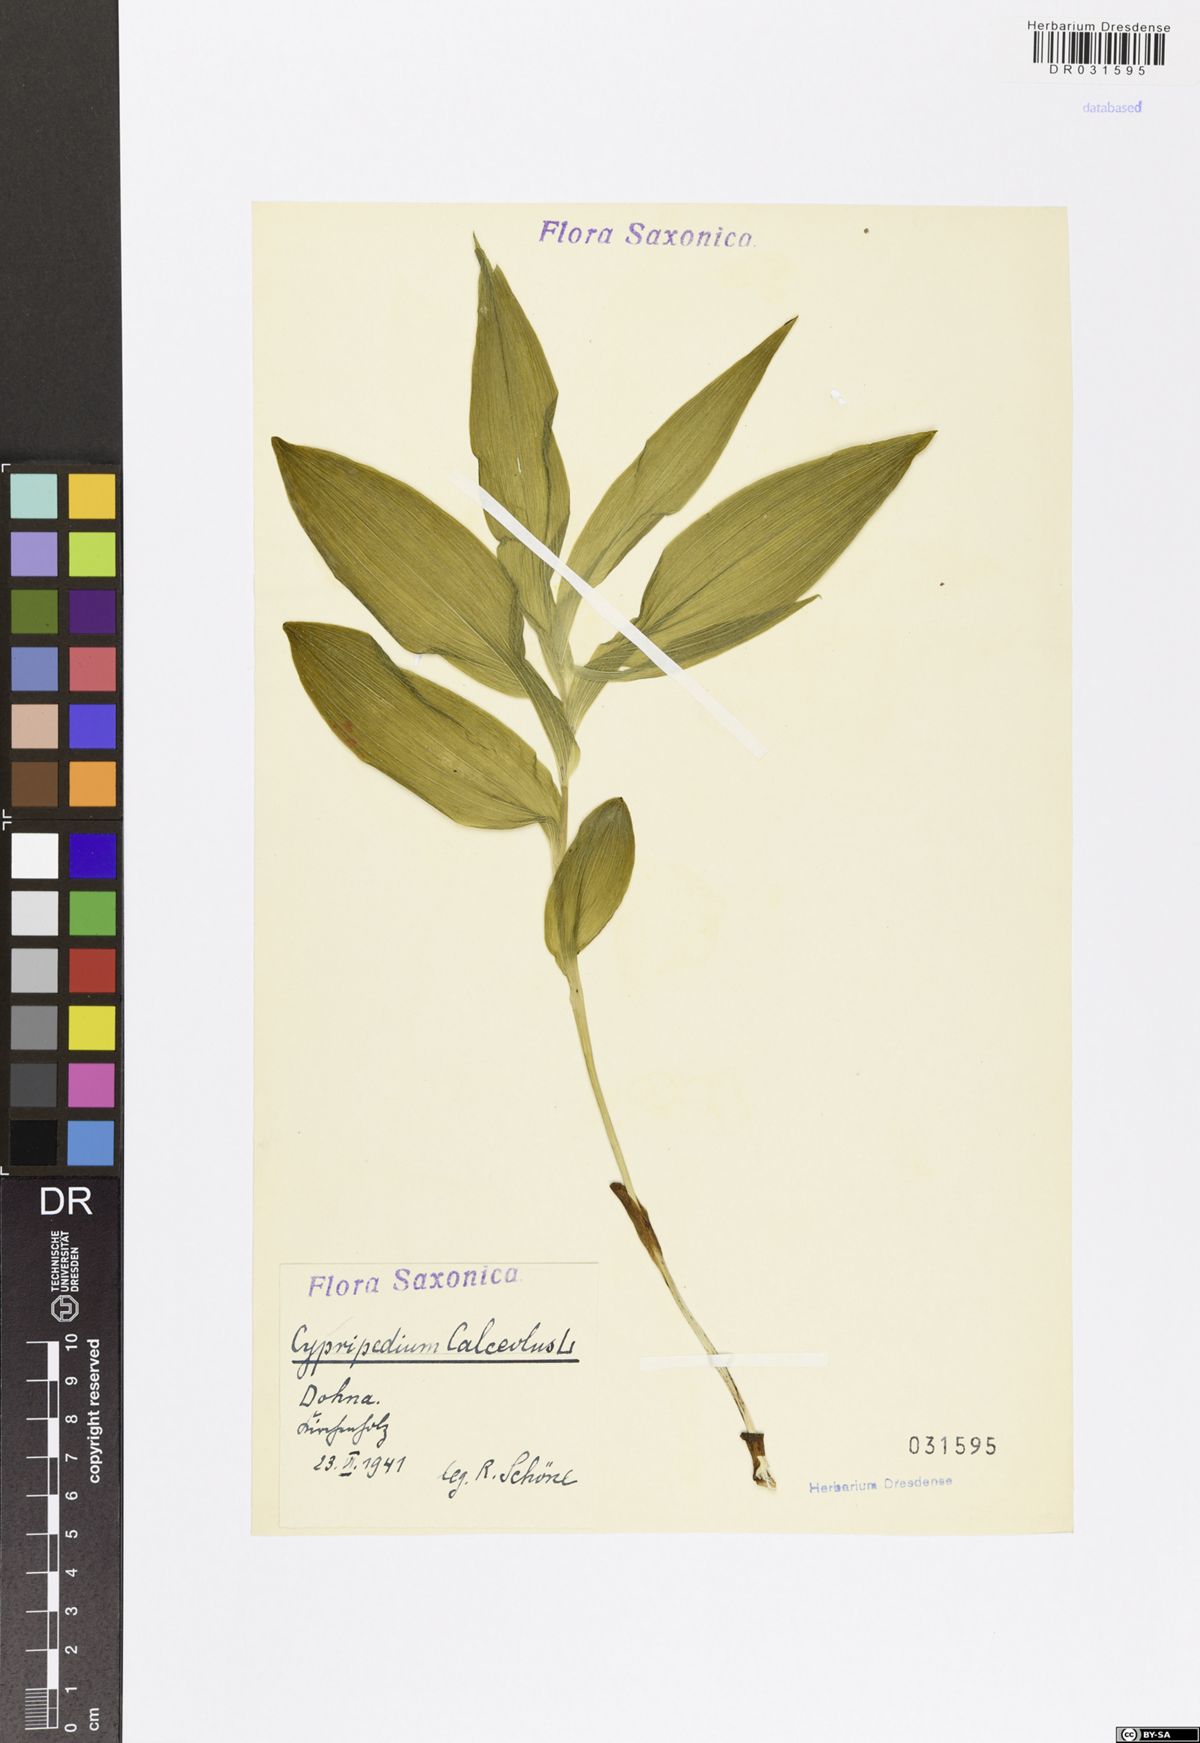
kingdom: Plantae
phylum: Tracheophyta
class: Liliopsida
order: Asparagales
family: Orchidaceae
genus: Cypripedium
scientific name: Cypripedium calceolus
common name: Lady's-slipper
